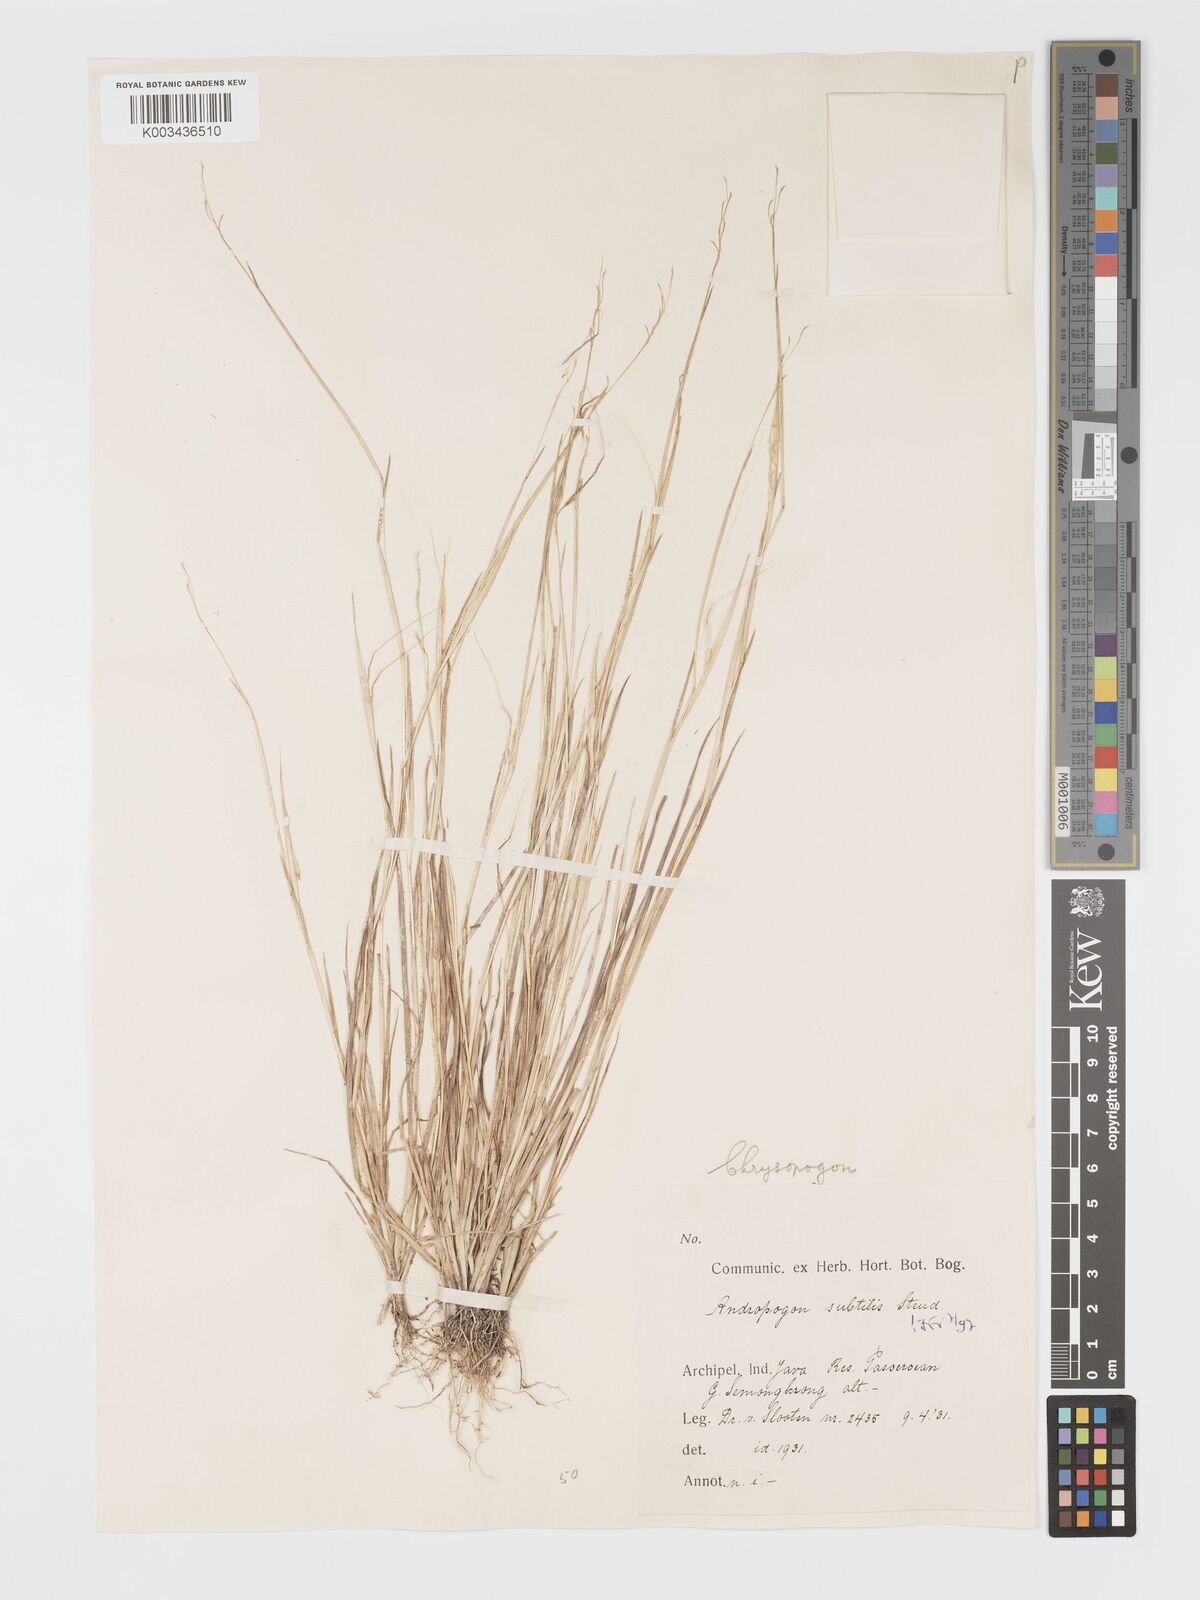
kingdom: Plantae
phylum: Tracheophyta
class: Liliopsida
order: Poales
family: Poaceae
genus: Chrysopogon
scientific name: Chrysopogon subtilis
